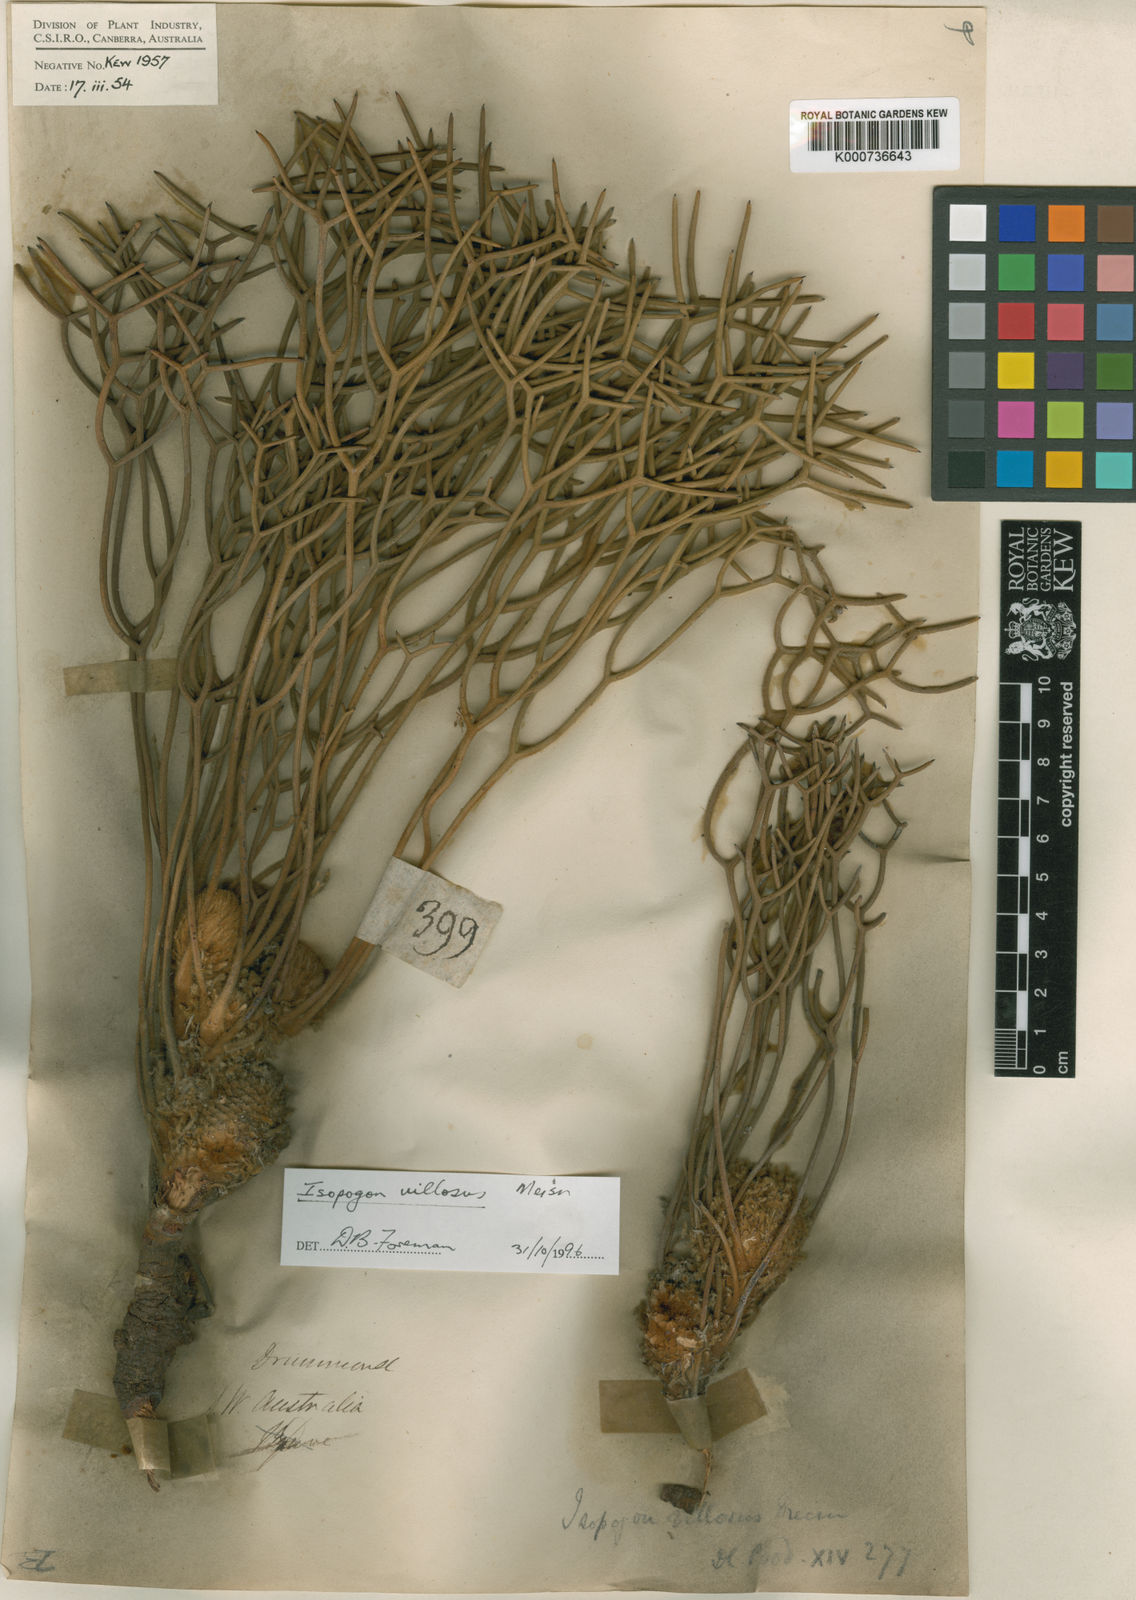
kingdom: Plantae
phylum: Tracheophyta
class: Magnoliopsida
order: Proteales
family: Proteaceae
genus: Isopogon
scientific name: Isopogon villosus
